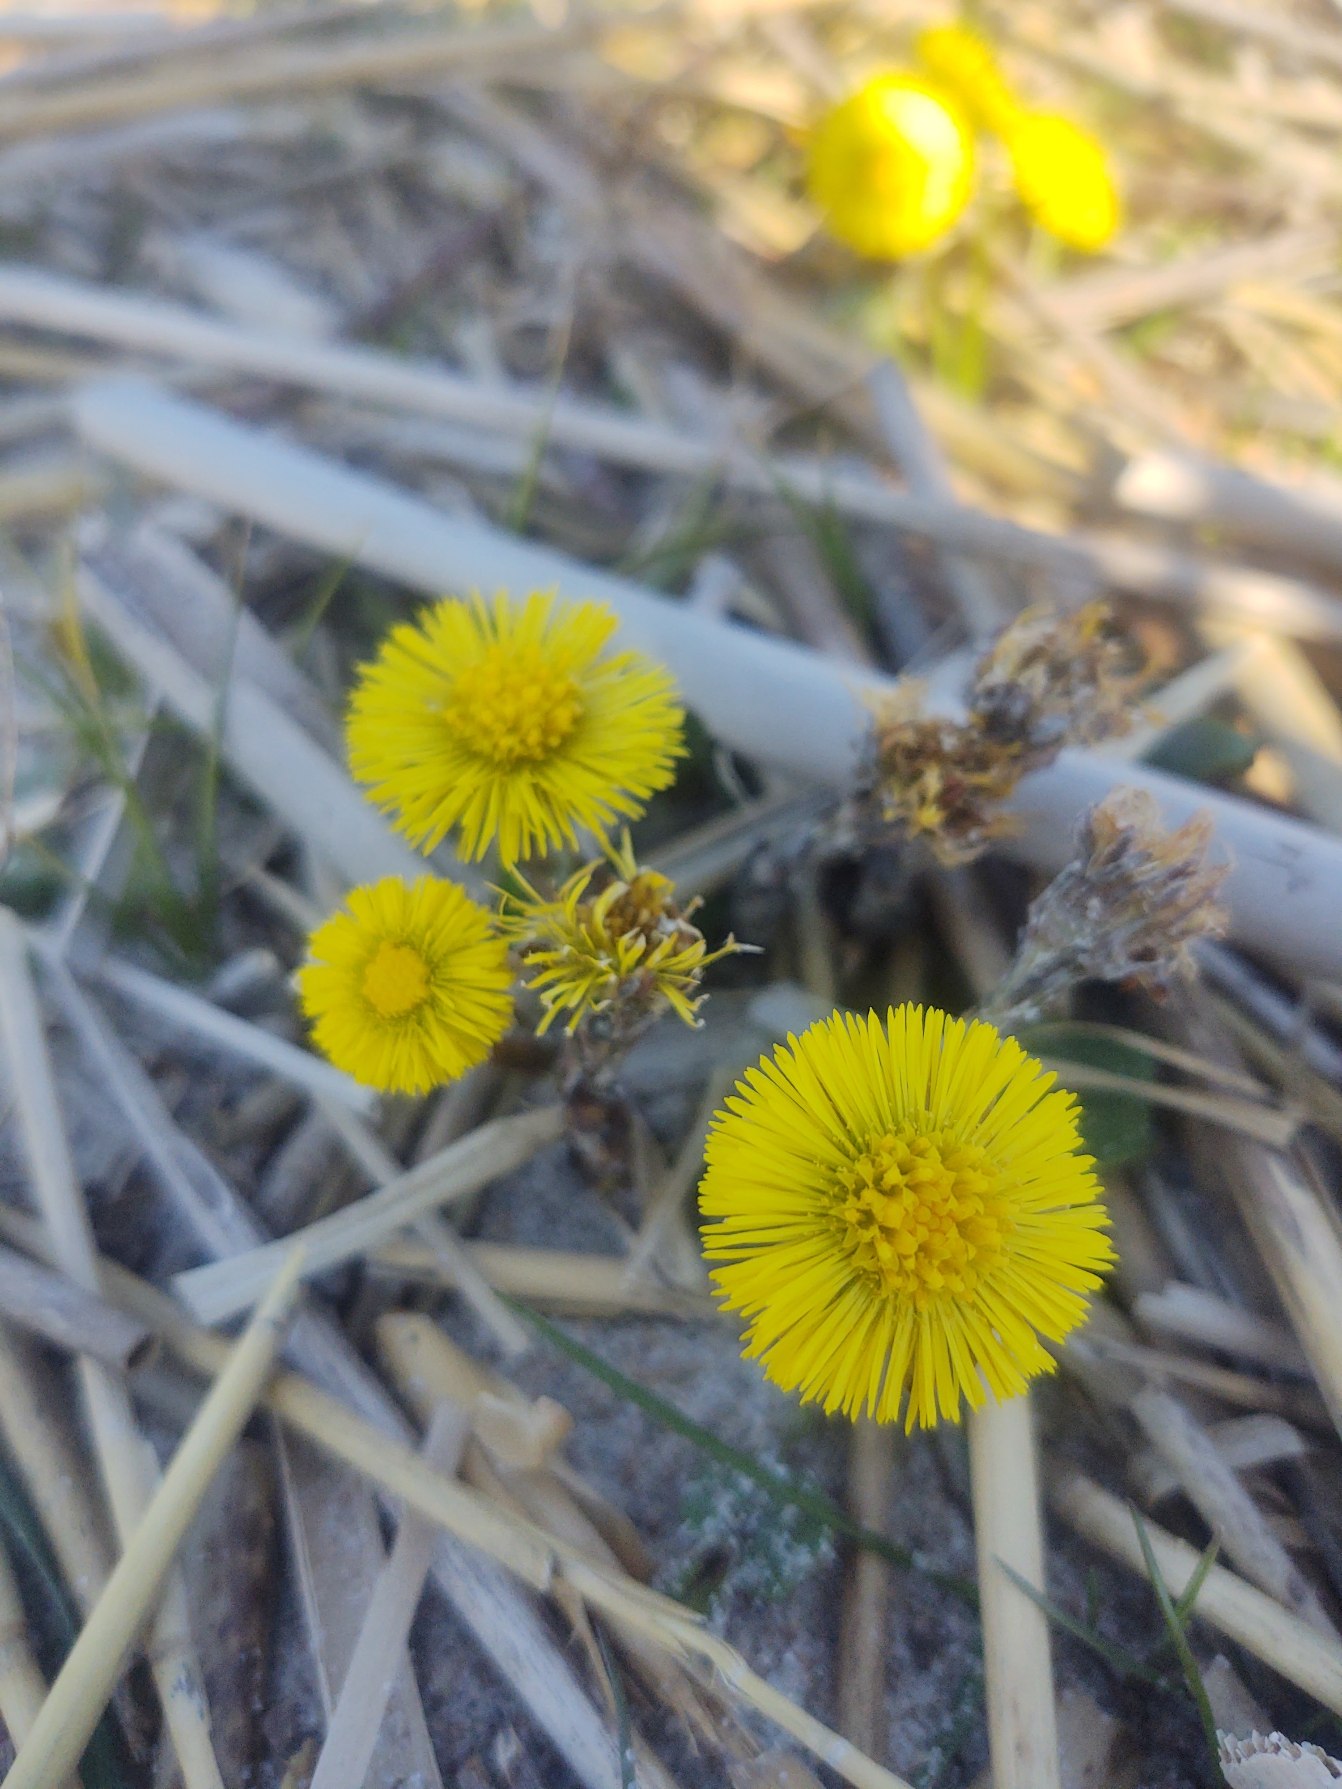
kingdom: Plantae
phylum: Tracheophyta
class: Magnoliopsida
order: Asterales
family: Asteraceae
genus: Tussilago
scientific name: Tussilago farfara
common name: Følfod
